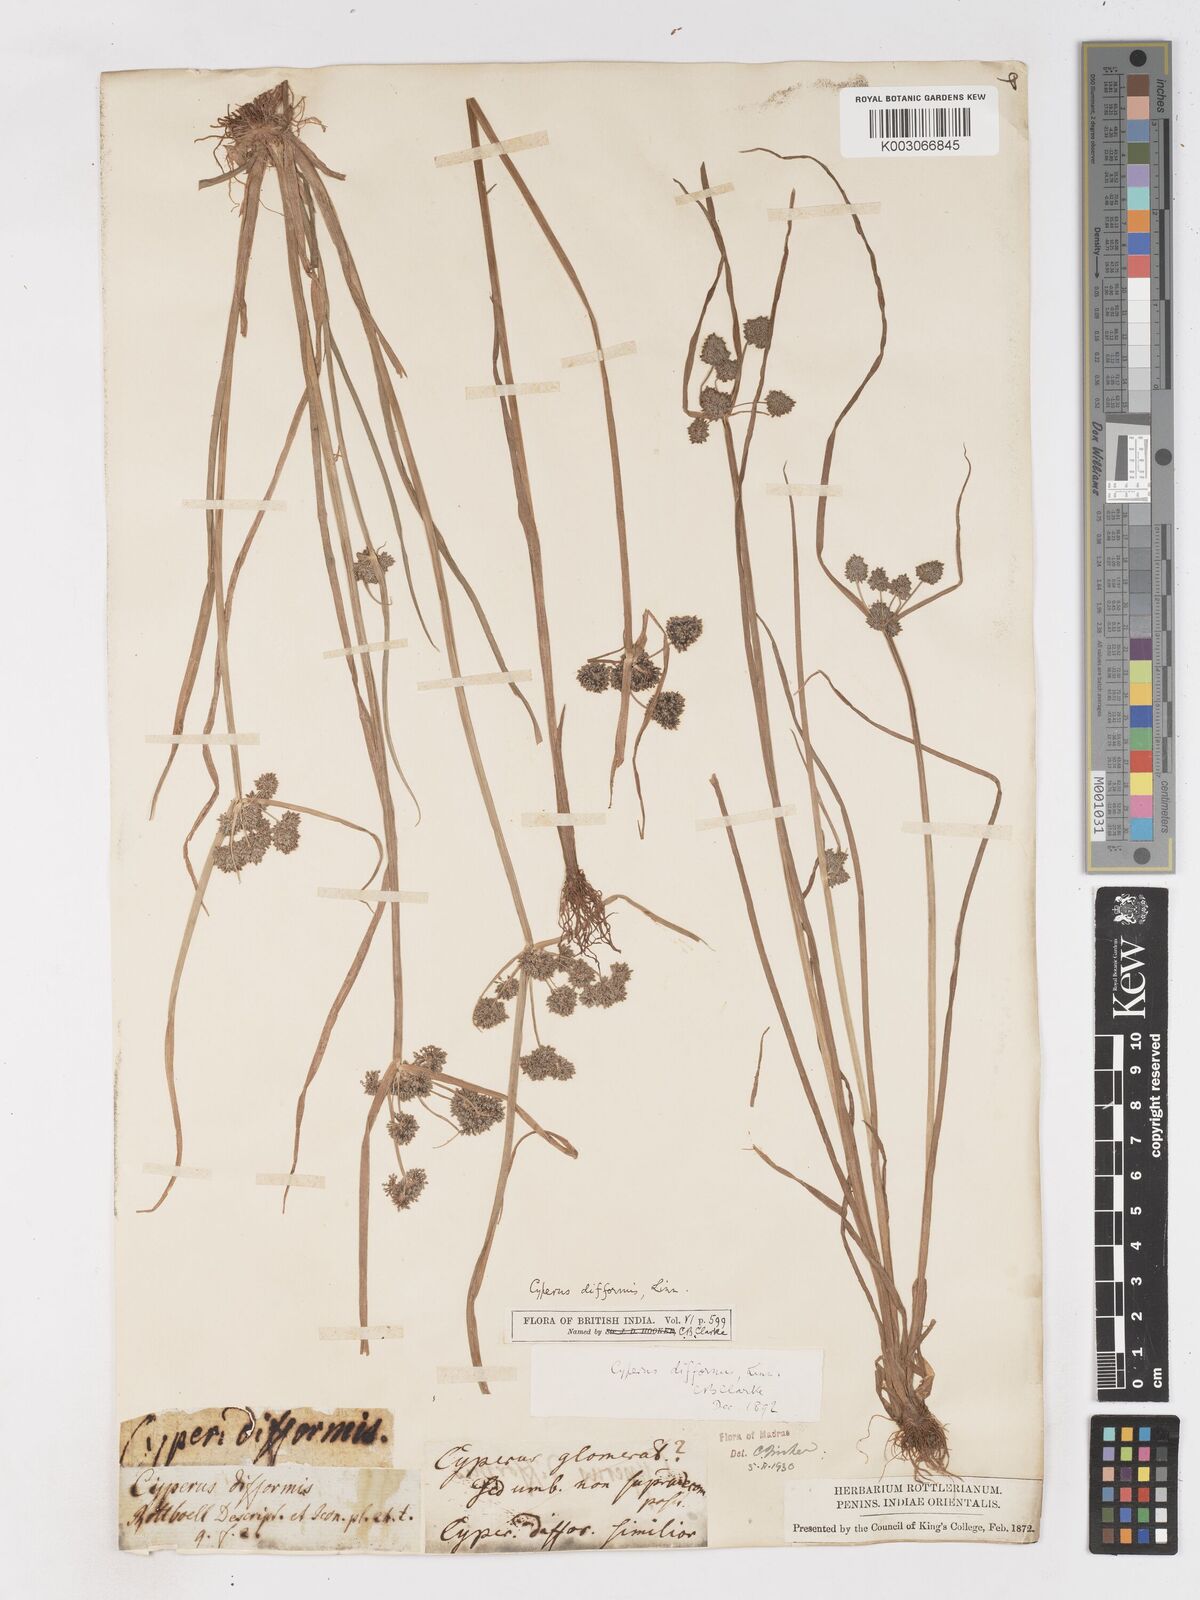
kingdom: Plantae
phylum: Tracheophyta
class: Liliopsida
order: Poales
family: Cyperaceae
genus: Cyperus
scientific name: Cyperus difformis
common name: Variable flatsedge
